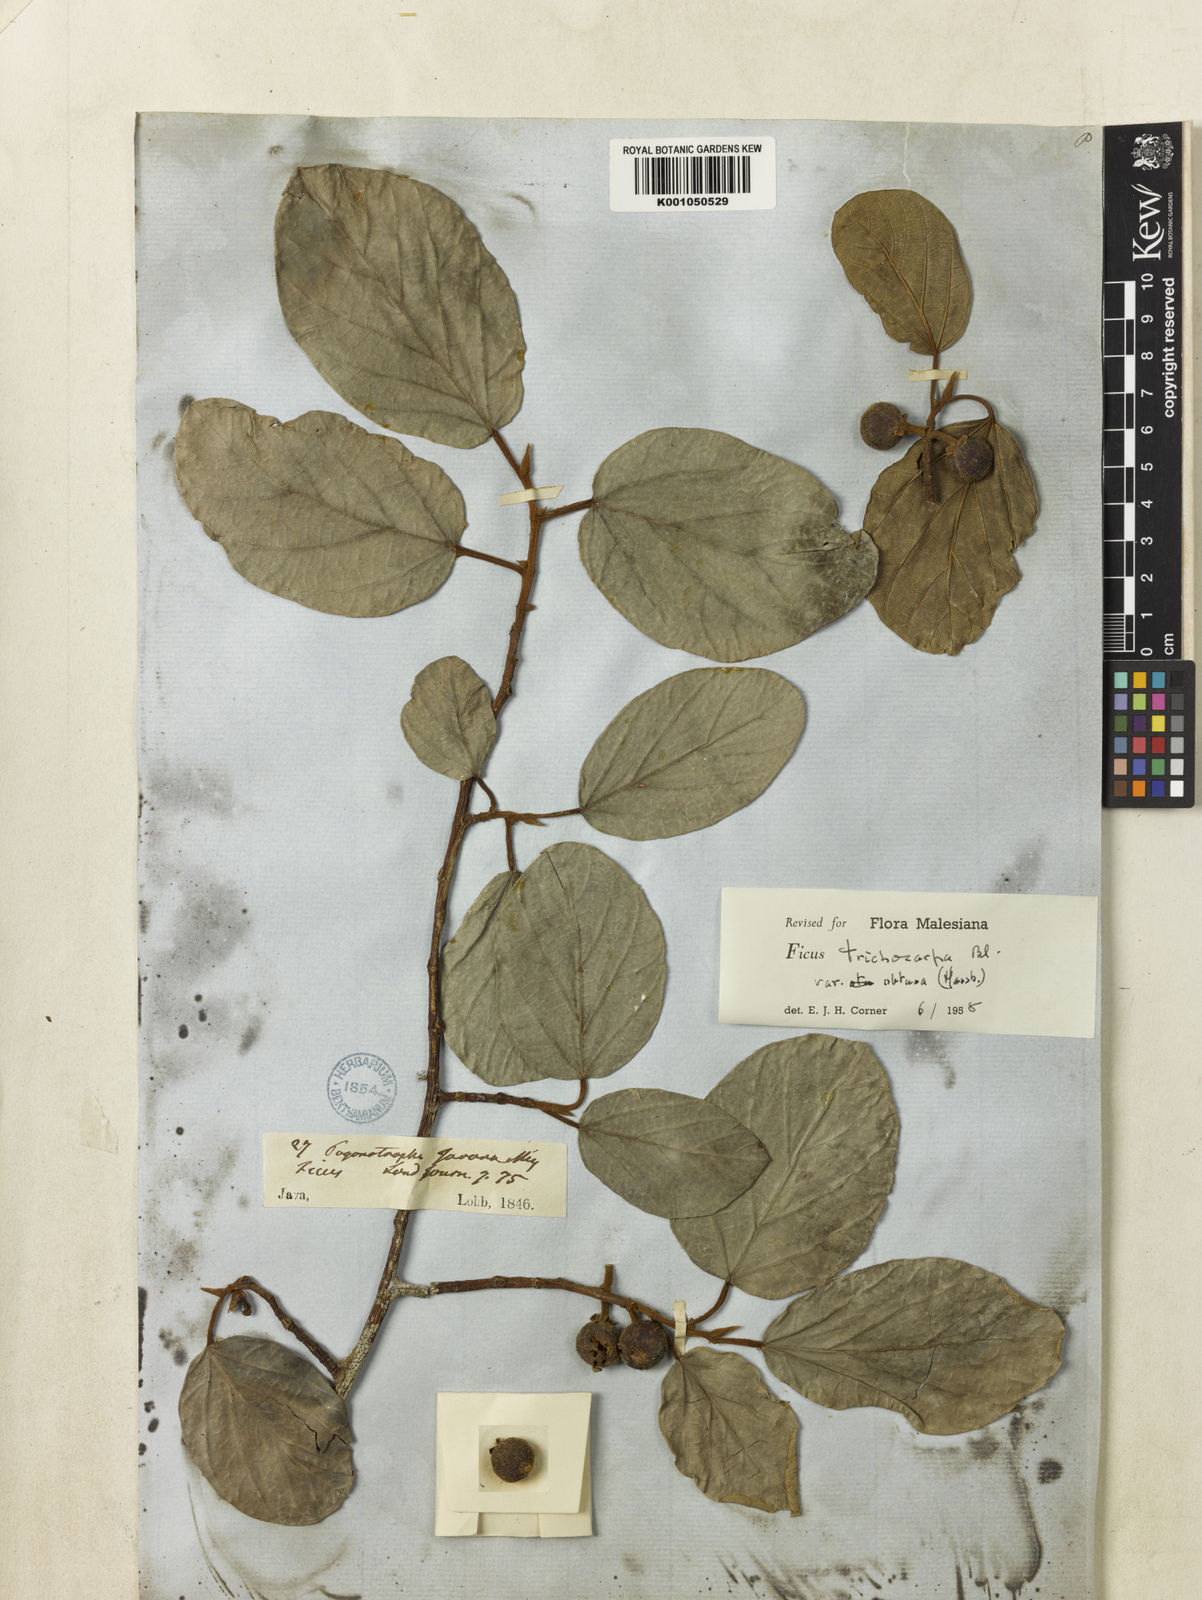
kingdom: Plantae
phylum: Tracheophyta
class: Magnoliopsida
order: Rosales
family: Moraceae
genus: Ficus
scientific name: Ficus trichocarpa
